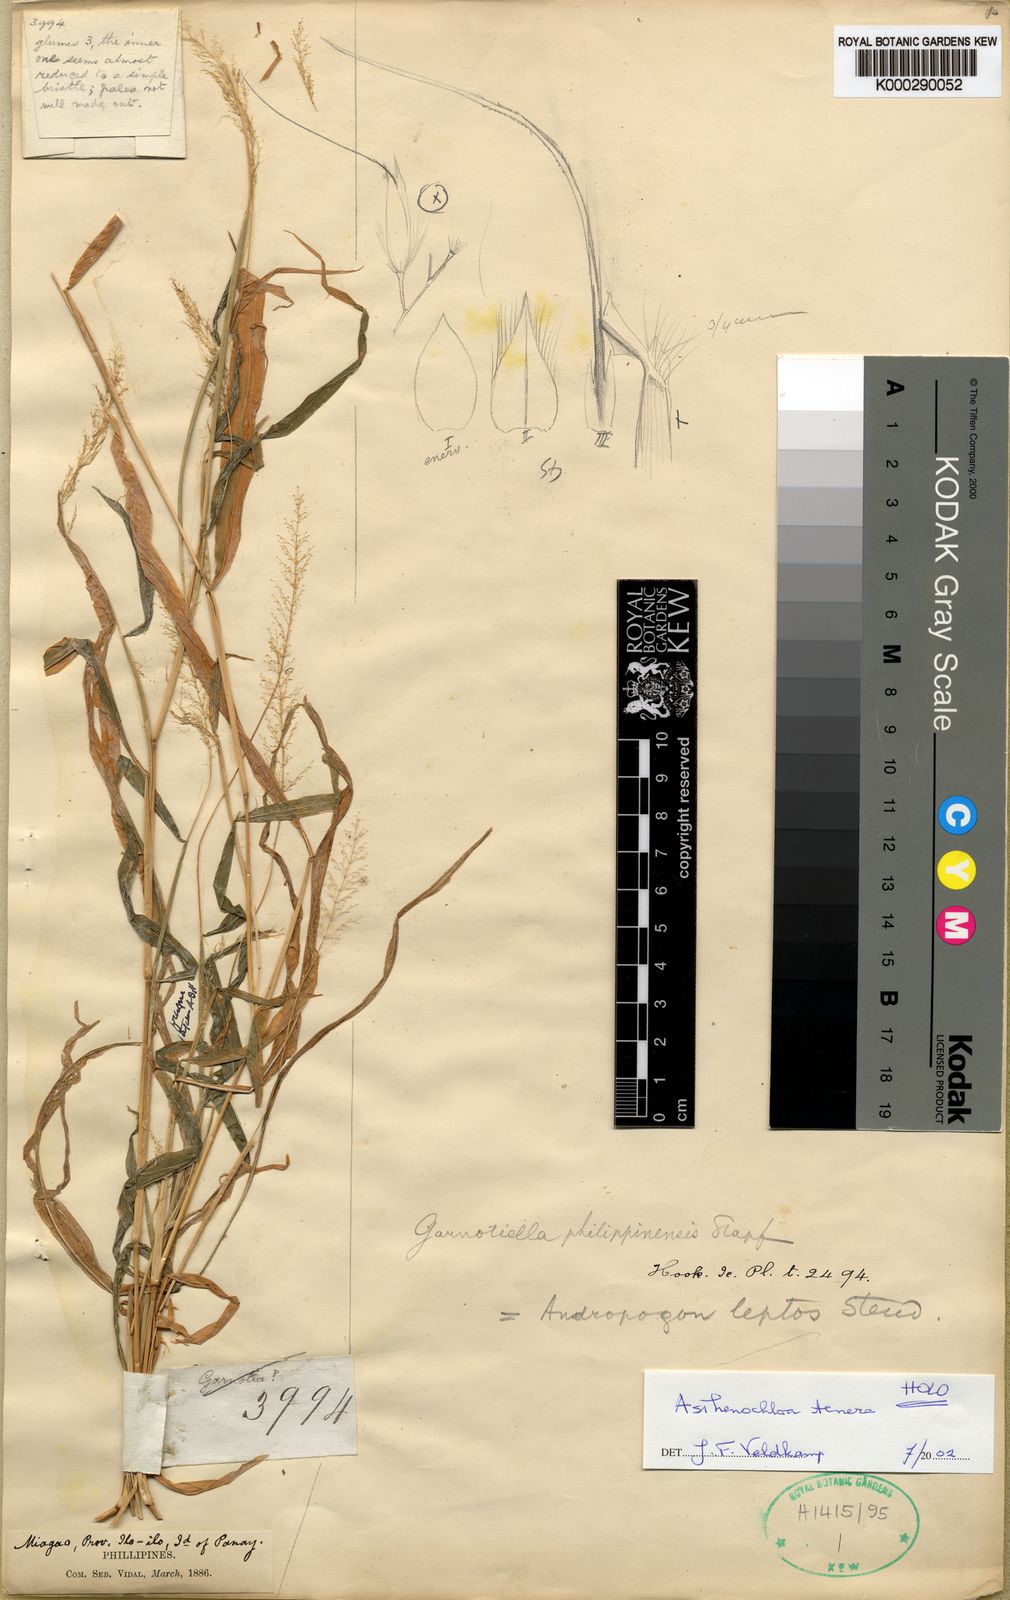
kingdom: Plantae
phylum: Tracheophyta
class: Liliopsida
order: Poales
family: Poaceae
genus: Asthenochloa
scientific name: Asthenochloa tenera
